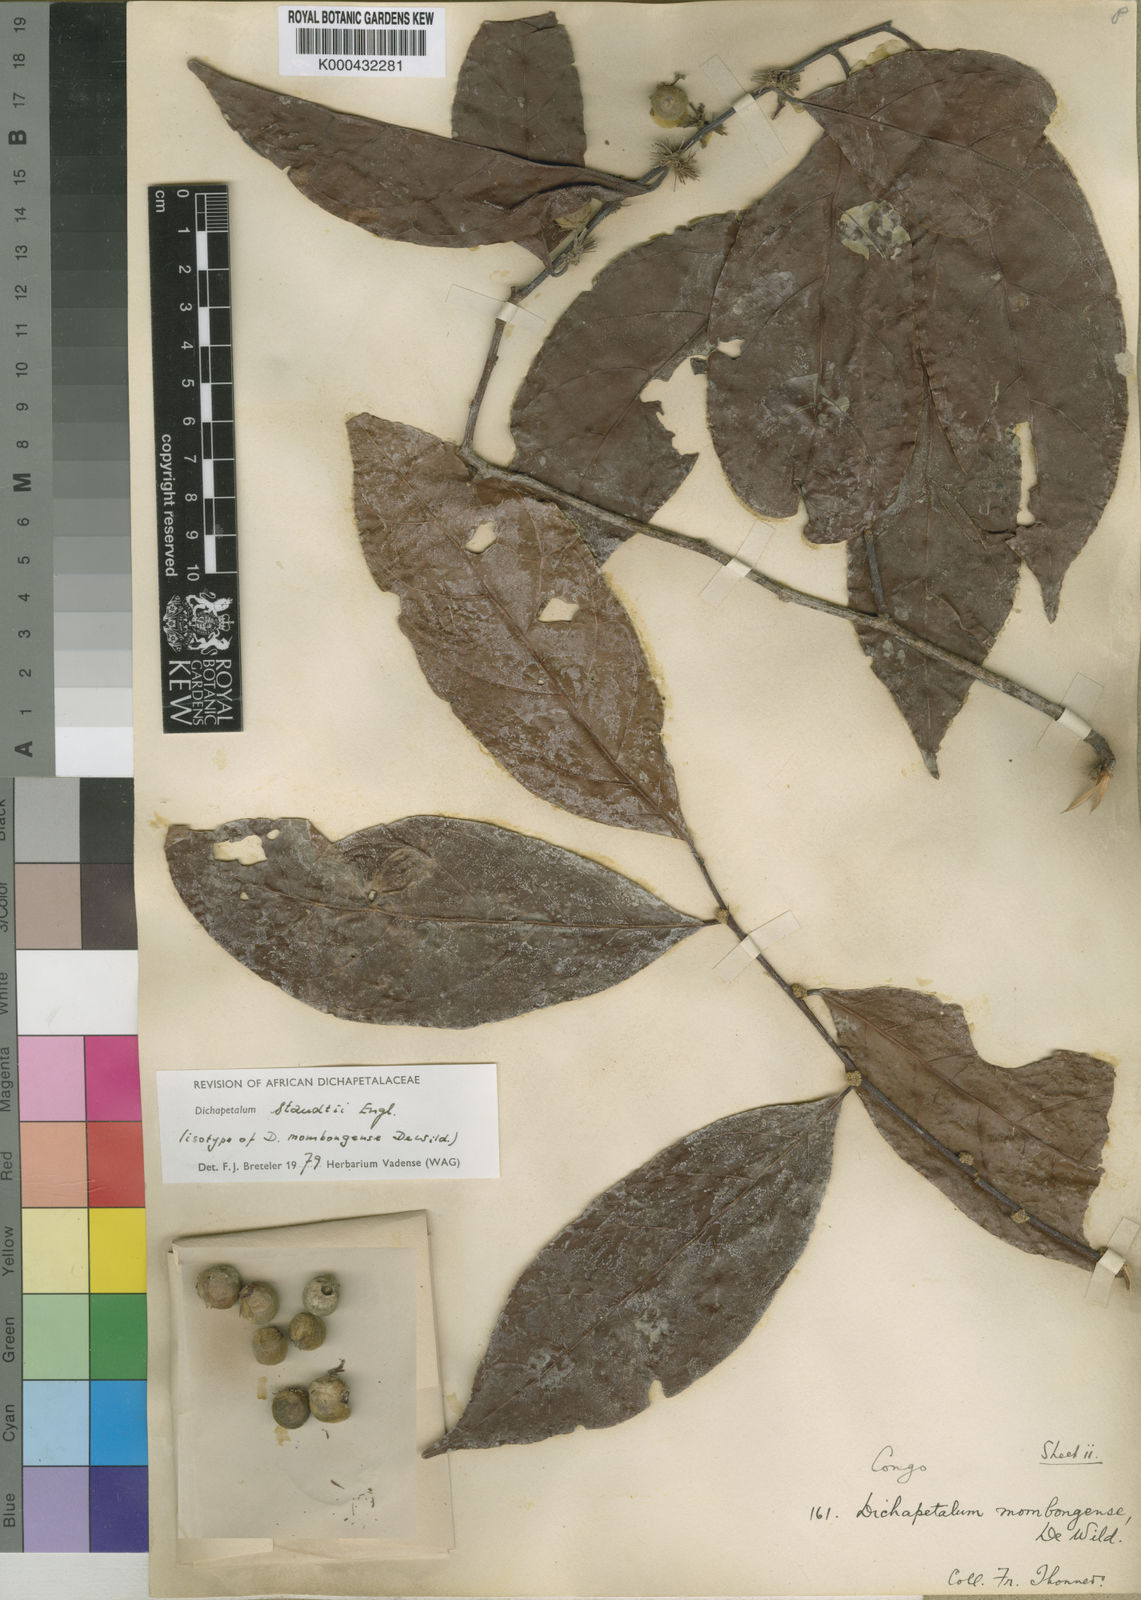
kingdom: Plantae
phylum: Tracheophyta
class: Magnoliopsida
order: Malpighiales
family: Dichapetalaceae
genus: Dichapetalum
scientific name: Dichapetalum staudtii
